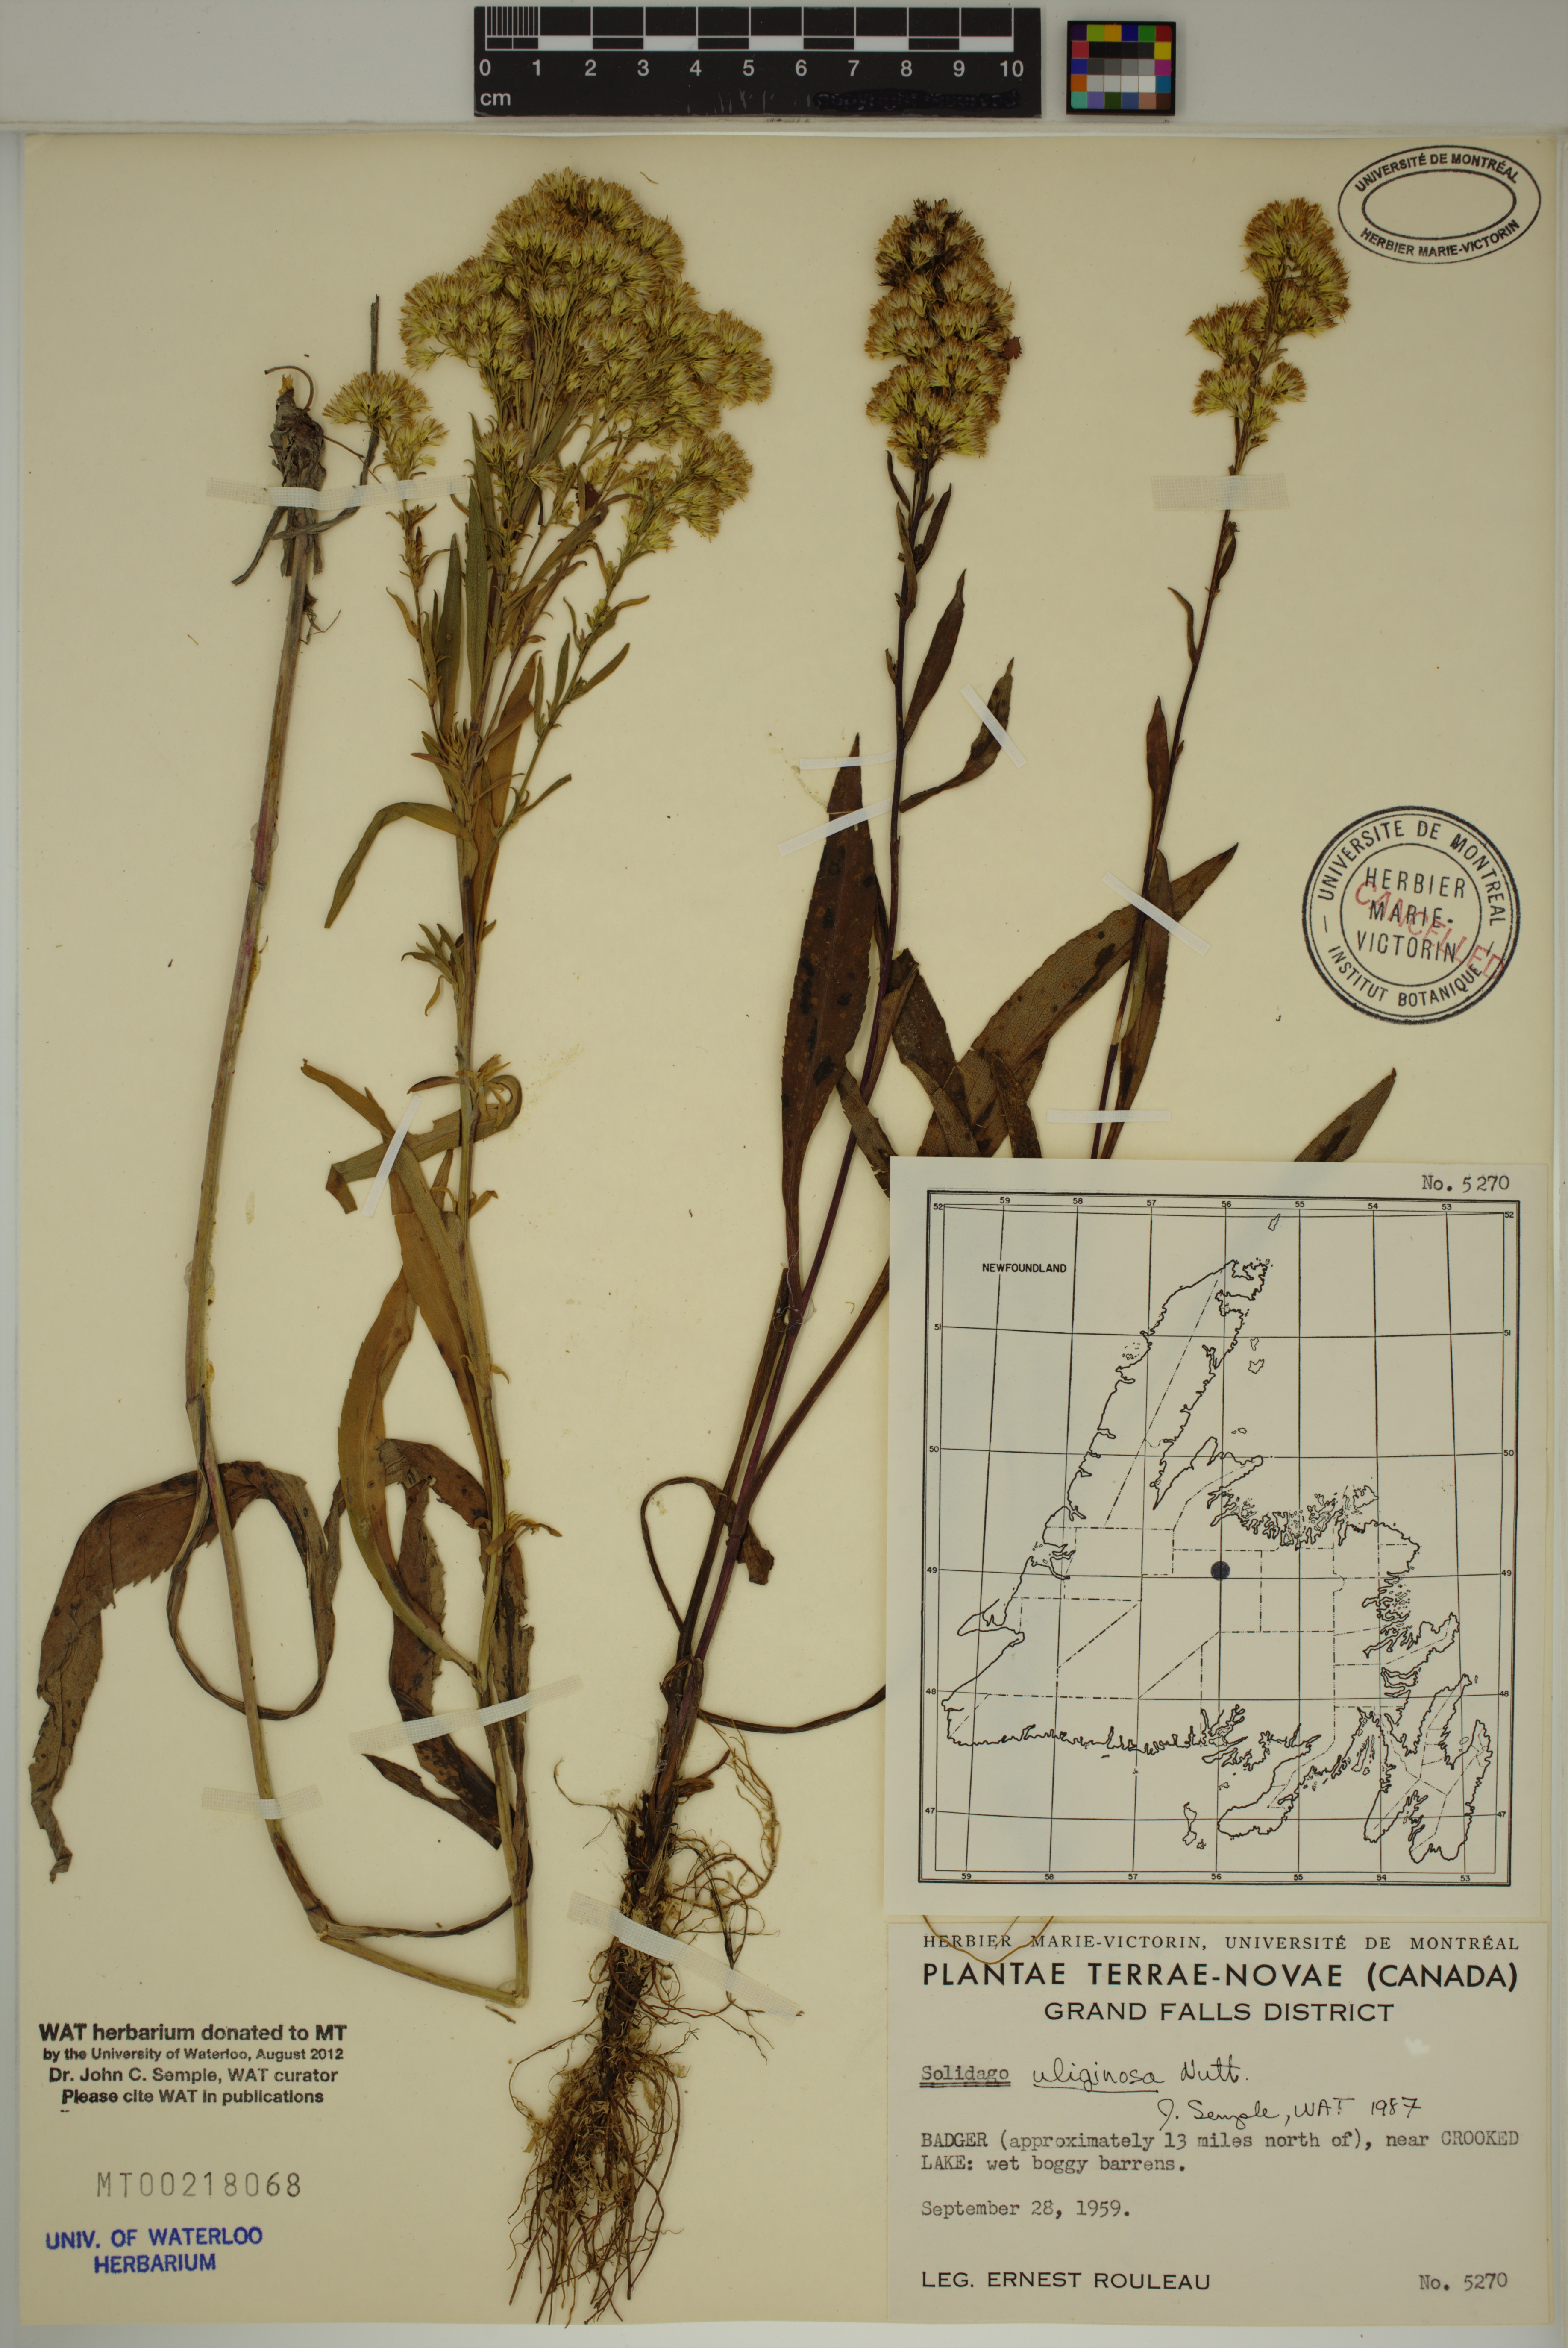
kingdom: Plantae
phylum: Tracheophyta
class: Magnoliopsida
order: Asterales
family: Asteraceae
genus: Solidago
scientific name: Solidago uliginosa
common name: Bog goldenrod
